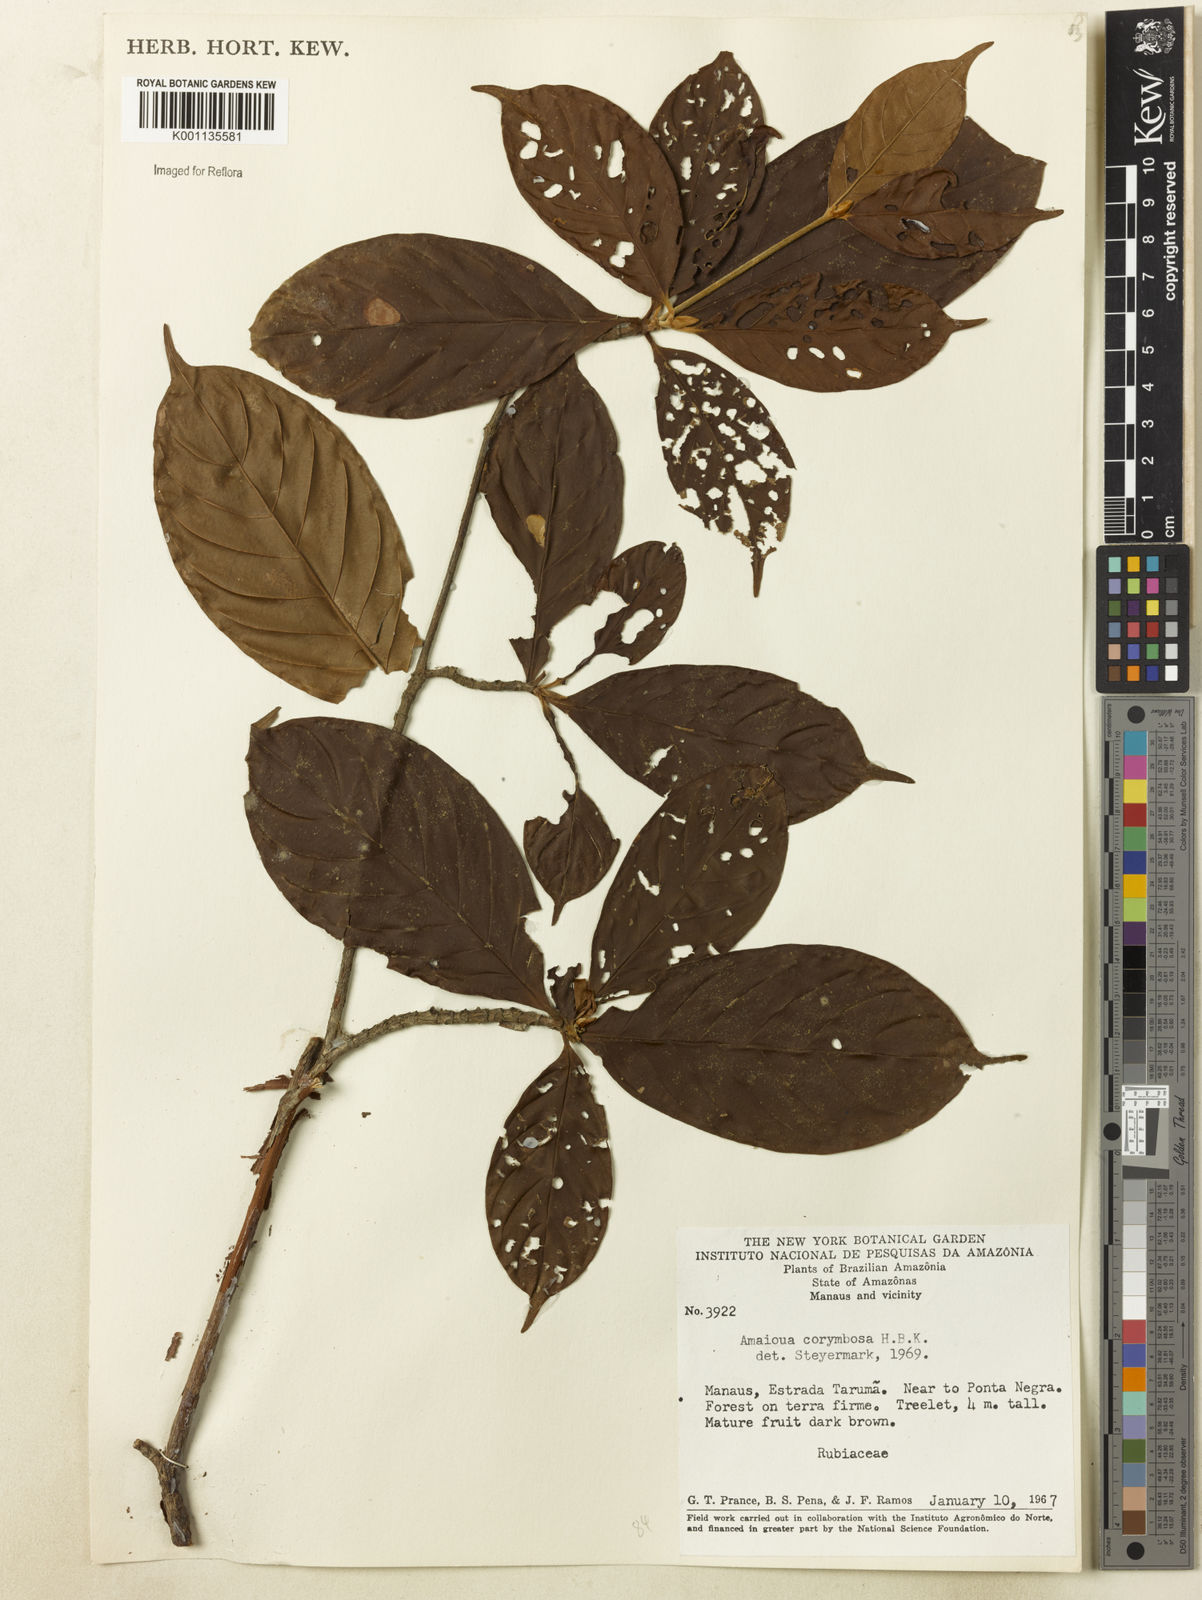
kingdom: Plantae
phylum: Tracheophyta
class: Magnoliopsida
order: Gentianales
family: Rubiaceae
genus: Amaioua
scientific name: Amaioua glomerulata
